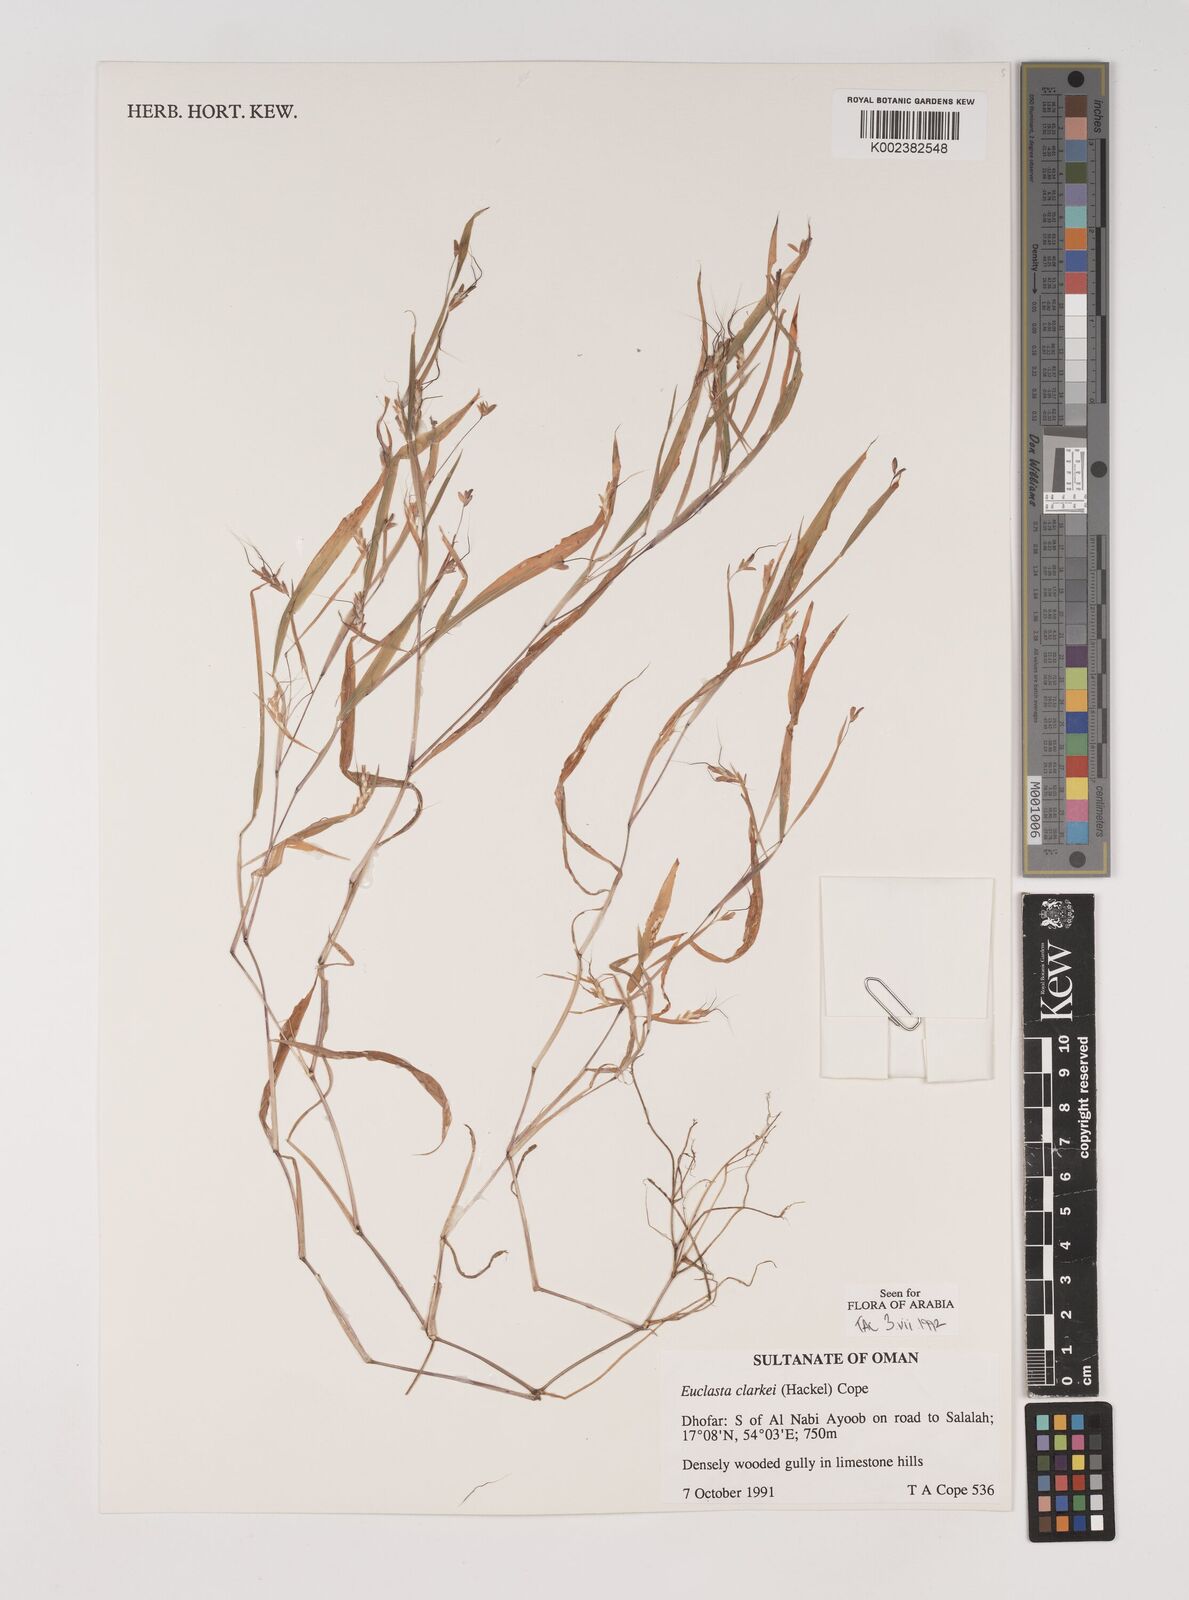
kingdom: Plantae
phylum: Tracheophyta
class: Liliopsida
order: Poales
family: Poaceae
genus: Euclasta
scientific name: Euclasta clarkei
